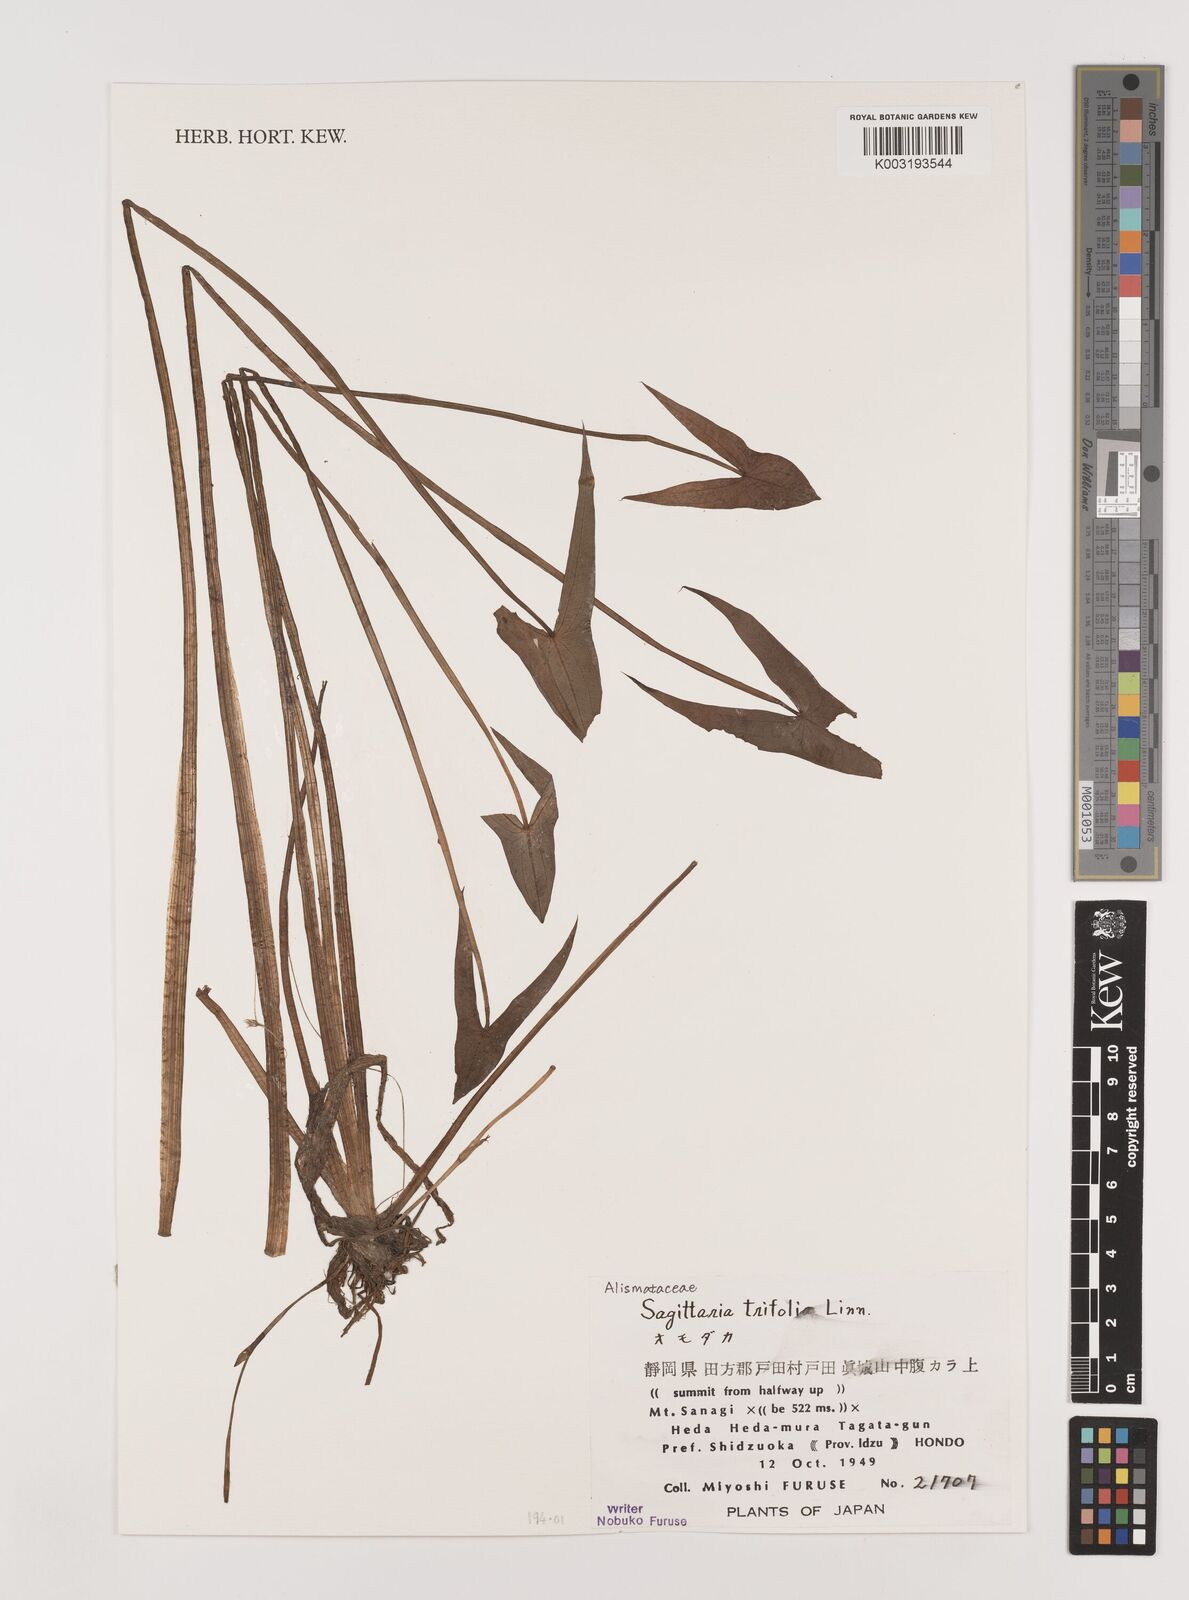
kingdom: Plantae
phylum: Tracheophyta
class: Liliopsida
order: Alismatales
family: Alismataceae
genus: Sagittaria
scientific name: Sagittaria trifolia
